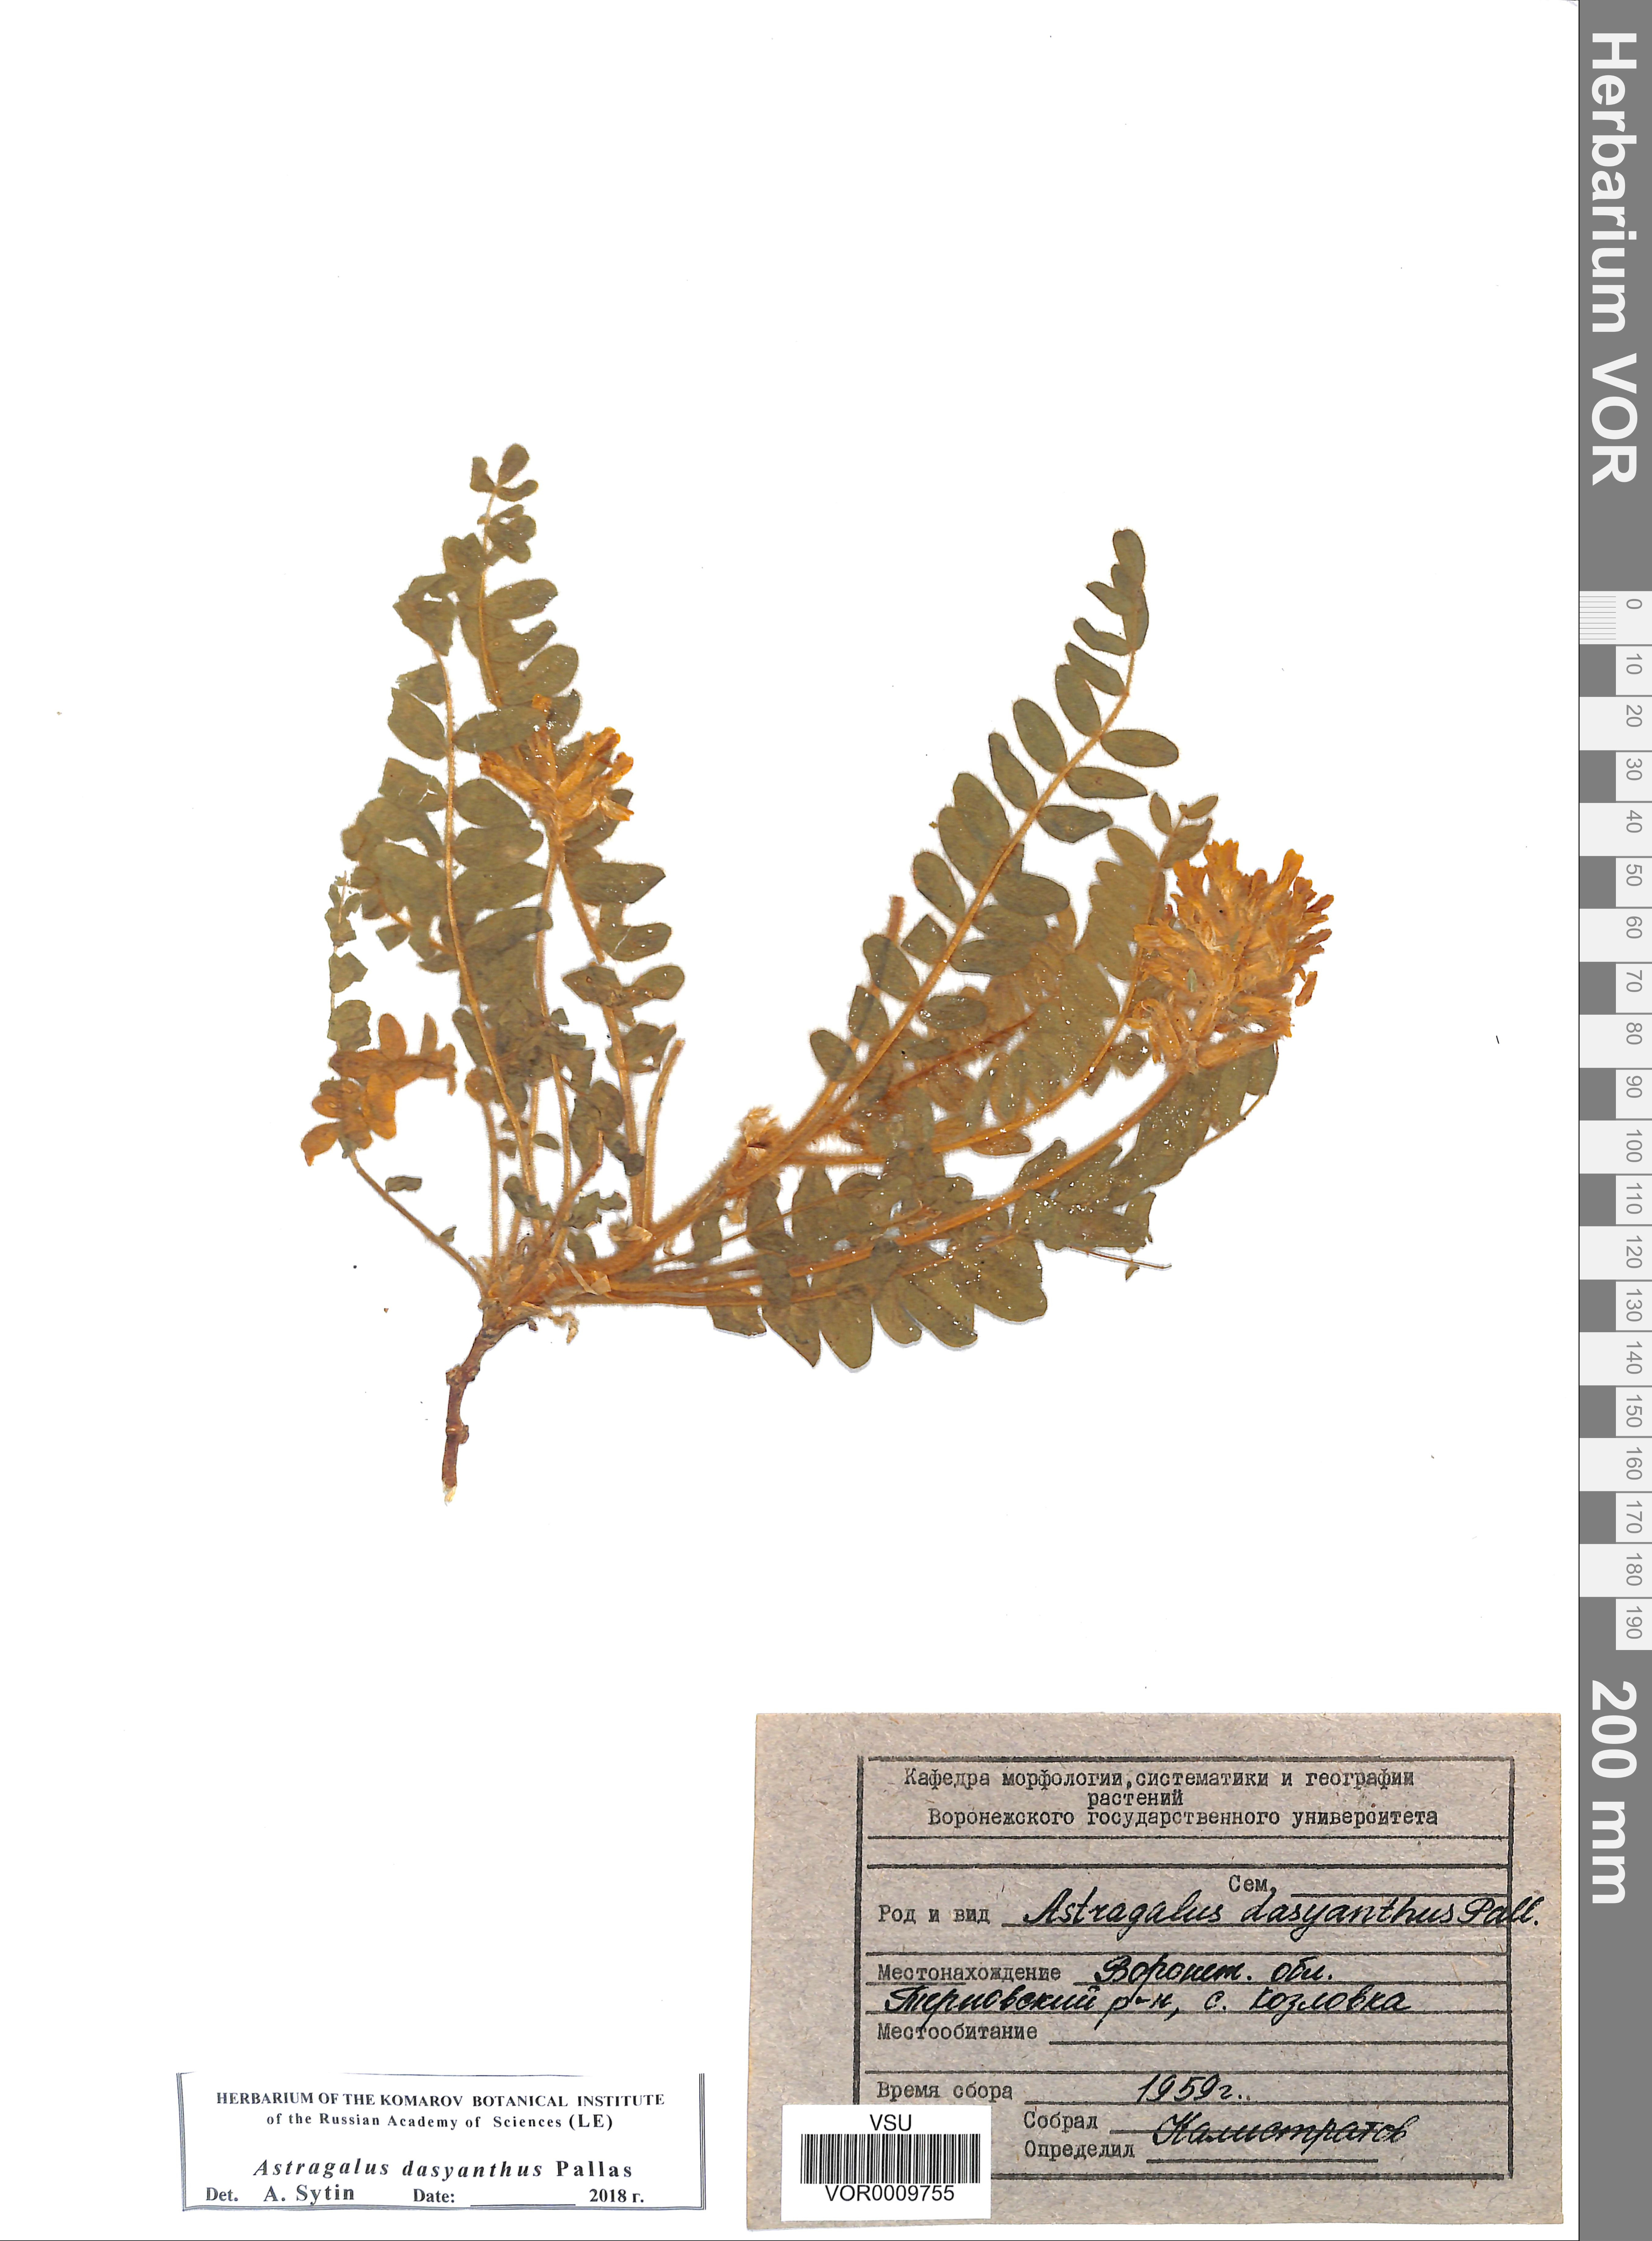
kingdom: Plantae
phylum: Tracheophyta
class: Magnoliopsida
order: Fabales
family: Fabaceae
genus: Astragalus
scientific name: Astragalus dasyanthus
